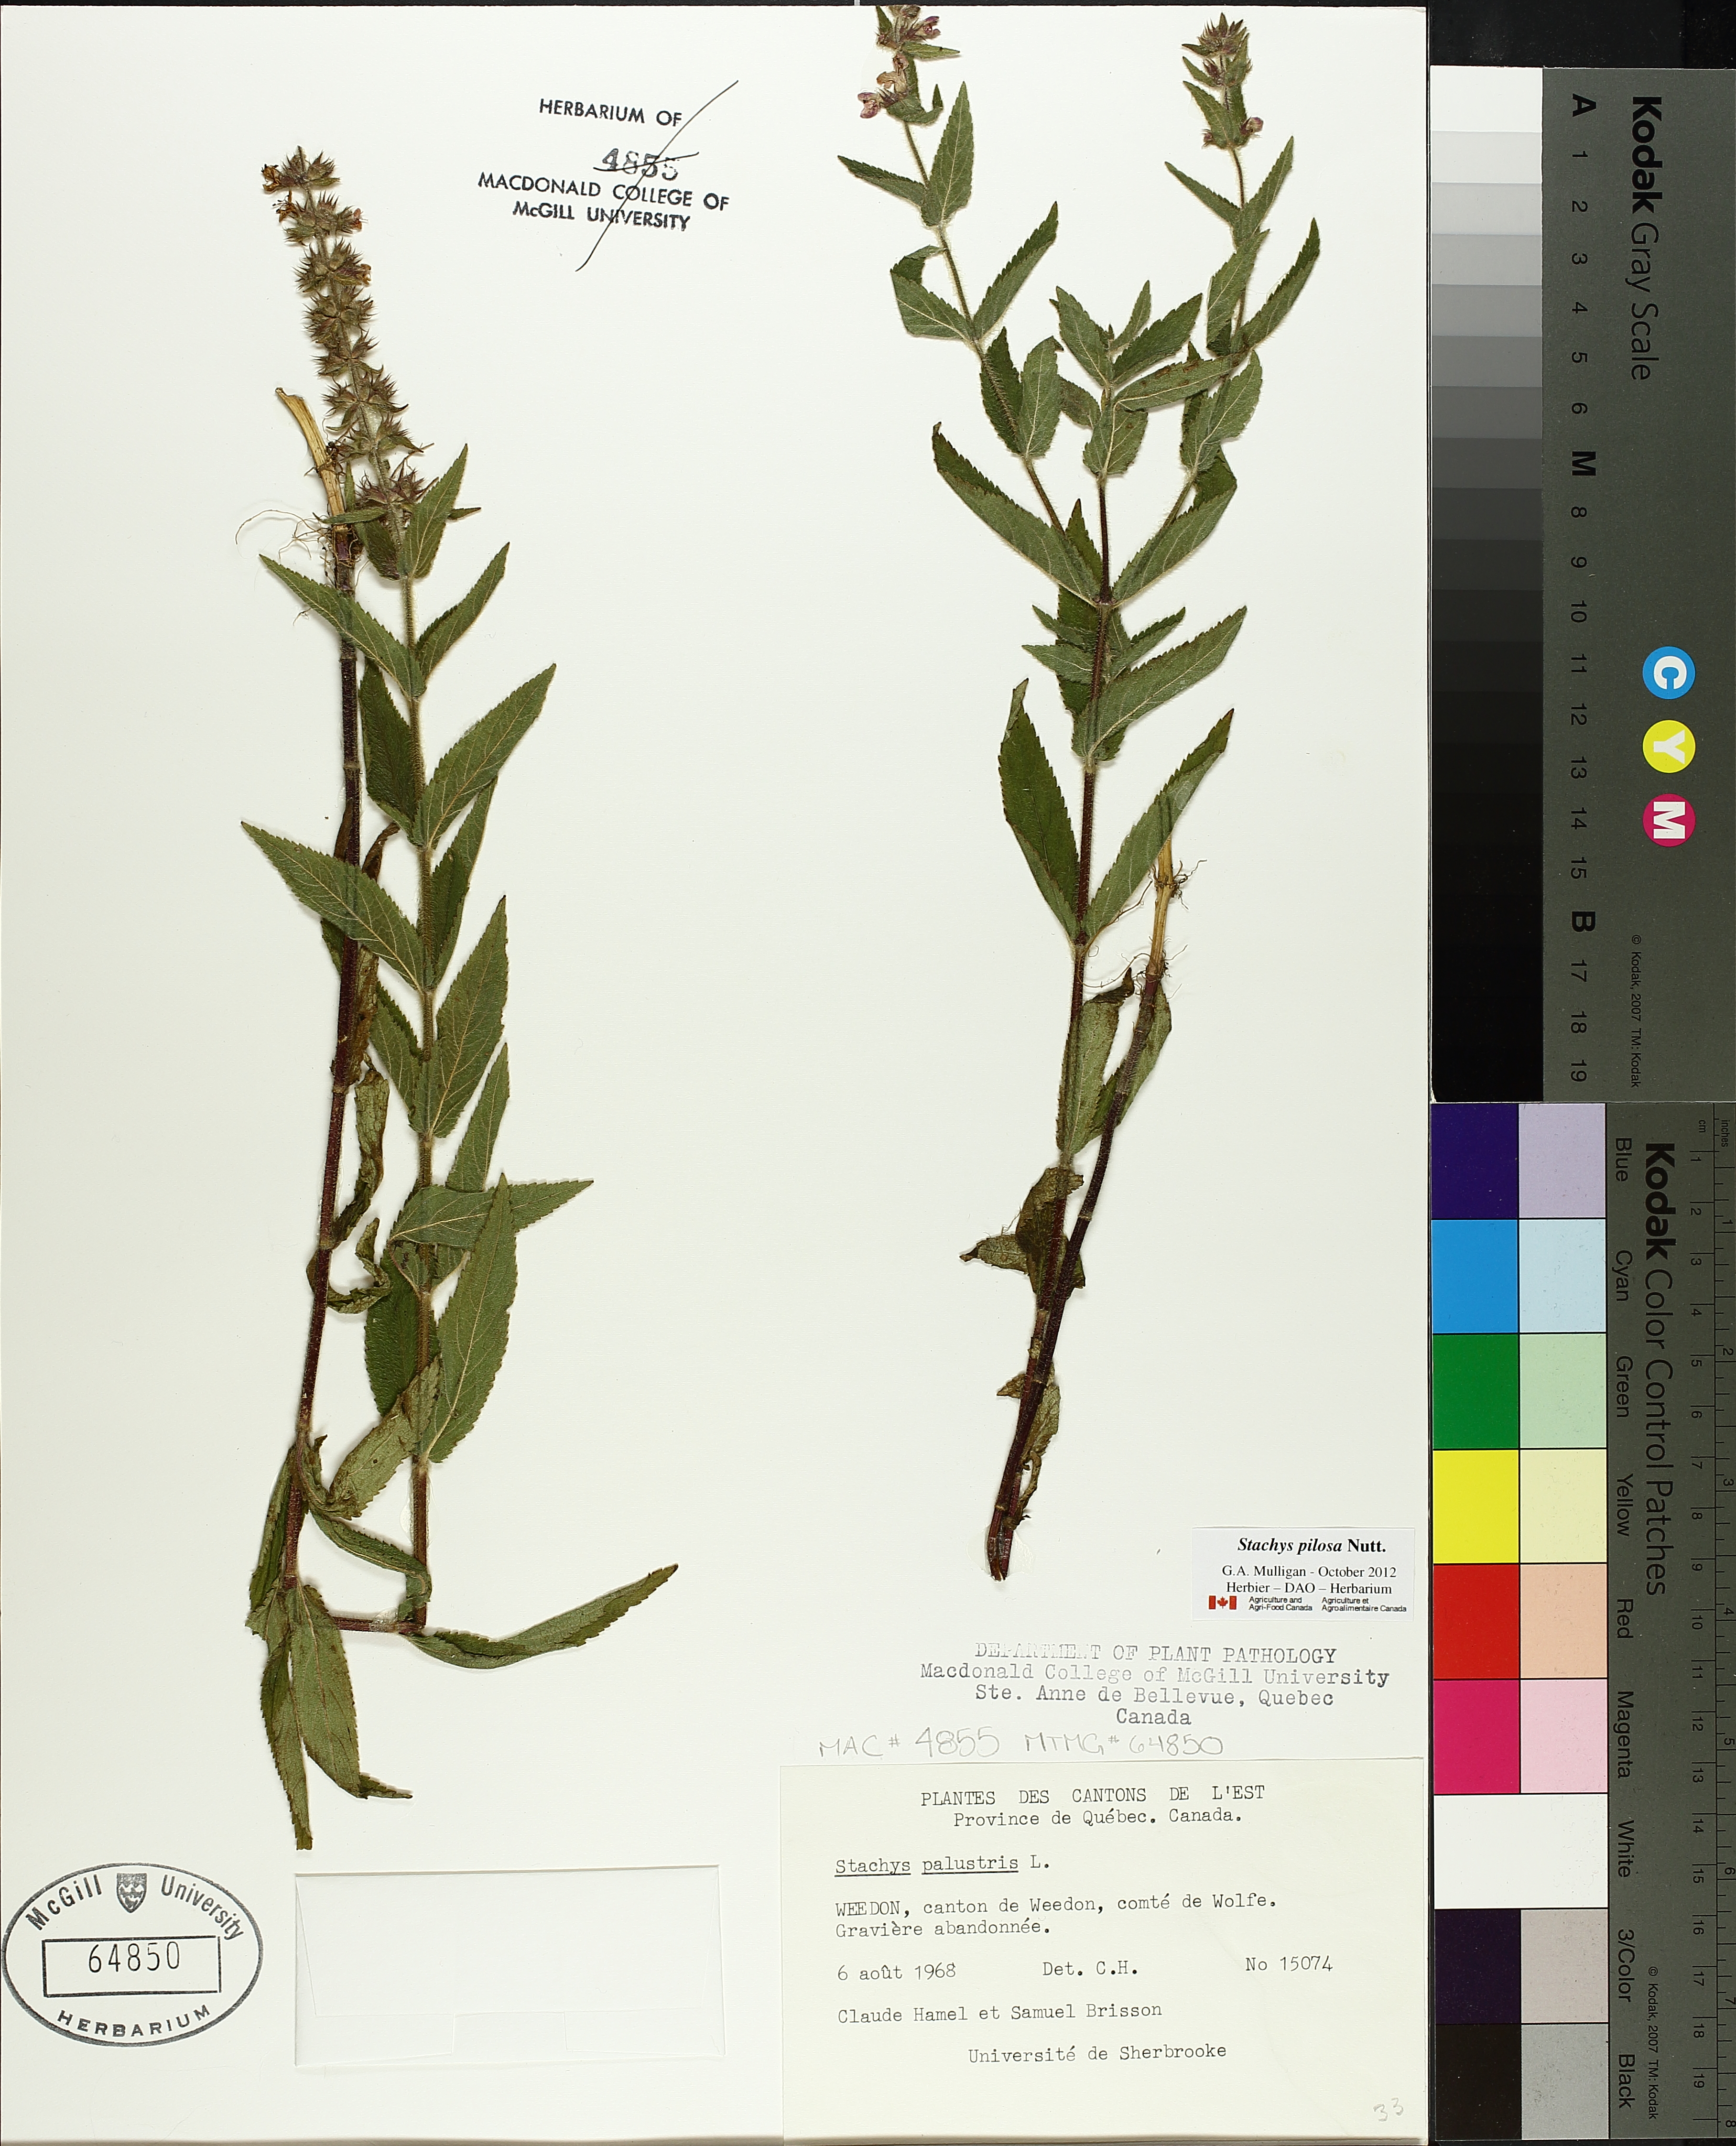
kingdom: Plantae
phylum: Tracheophyta
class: Magnoliopsida
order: Lamiales
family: Lamiaceae
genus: Stachys
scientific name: Stachys palustris
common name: Marsh woundwort
